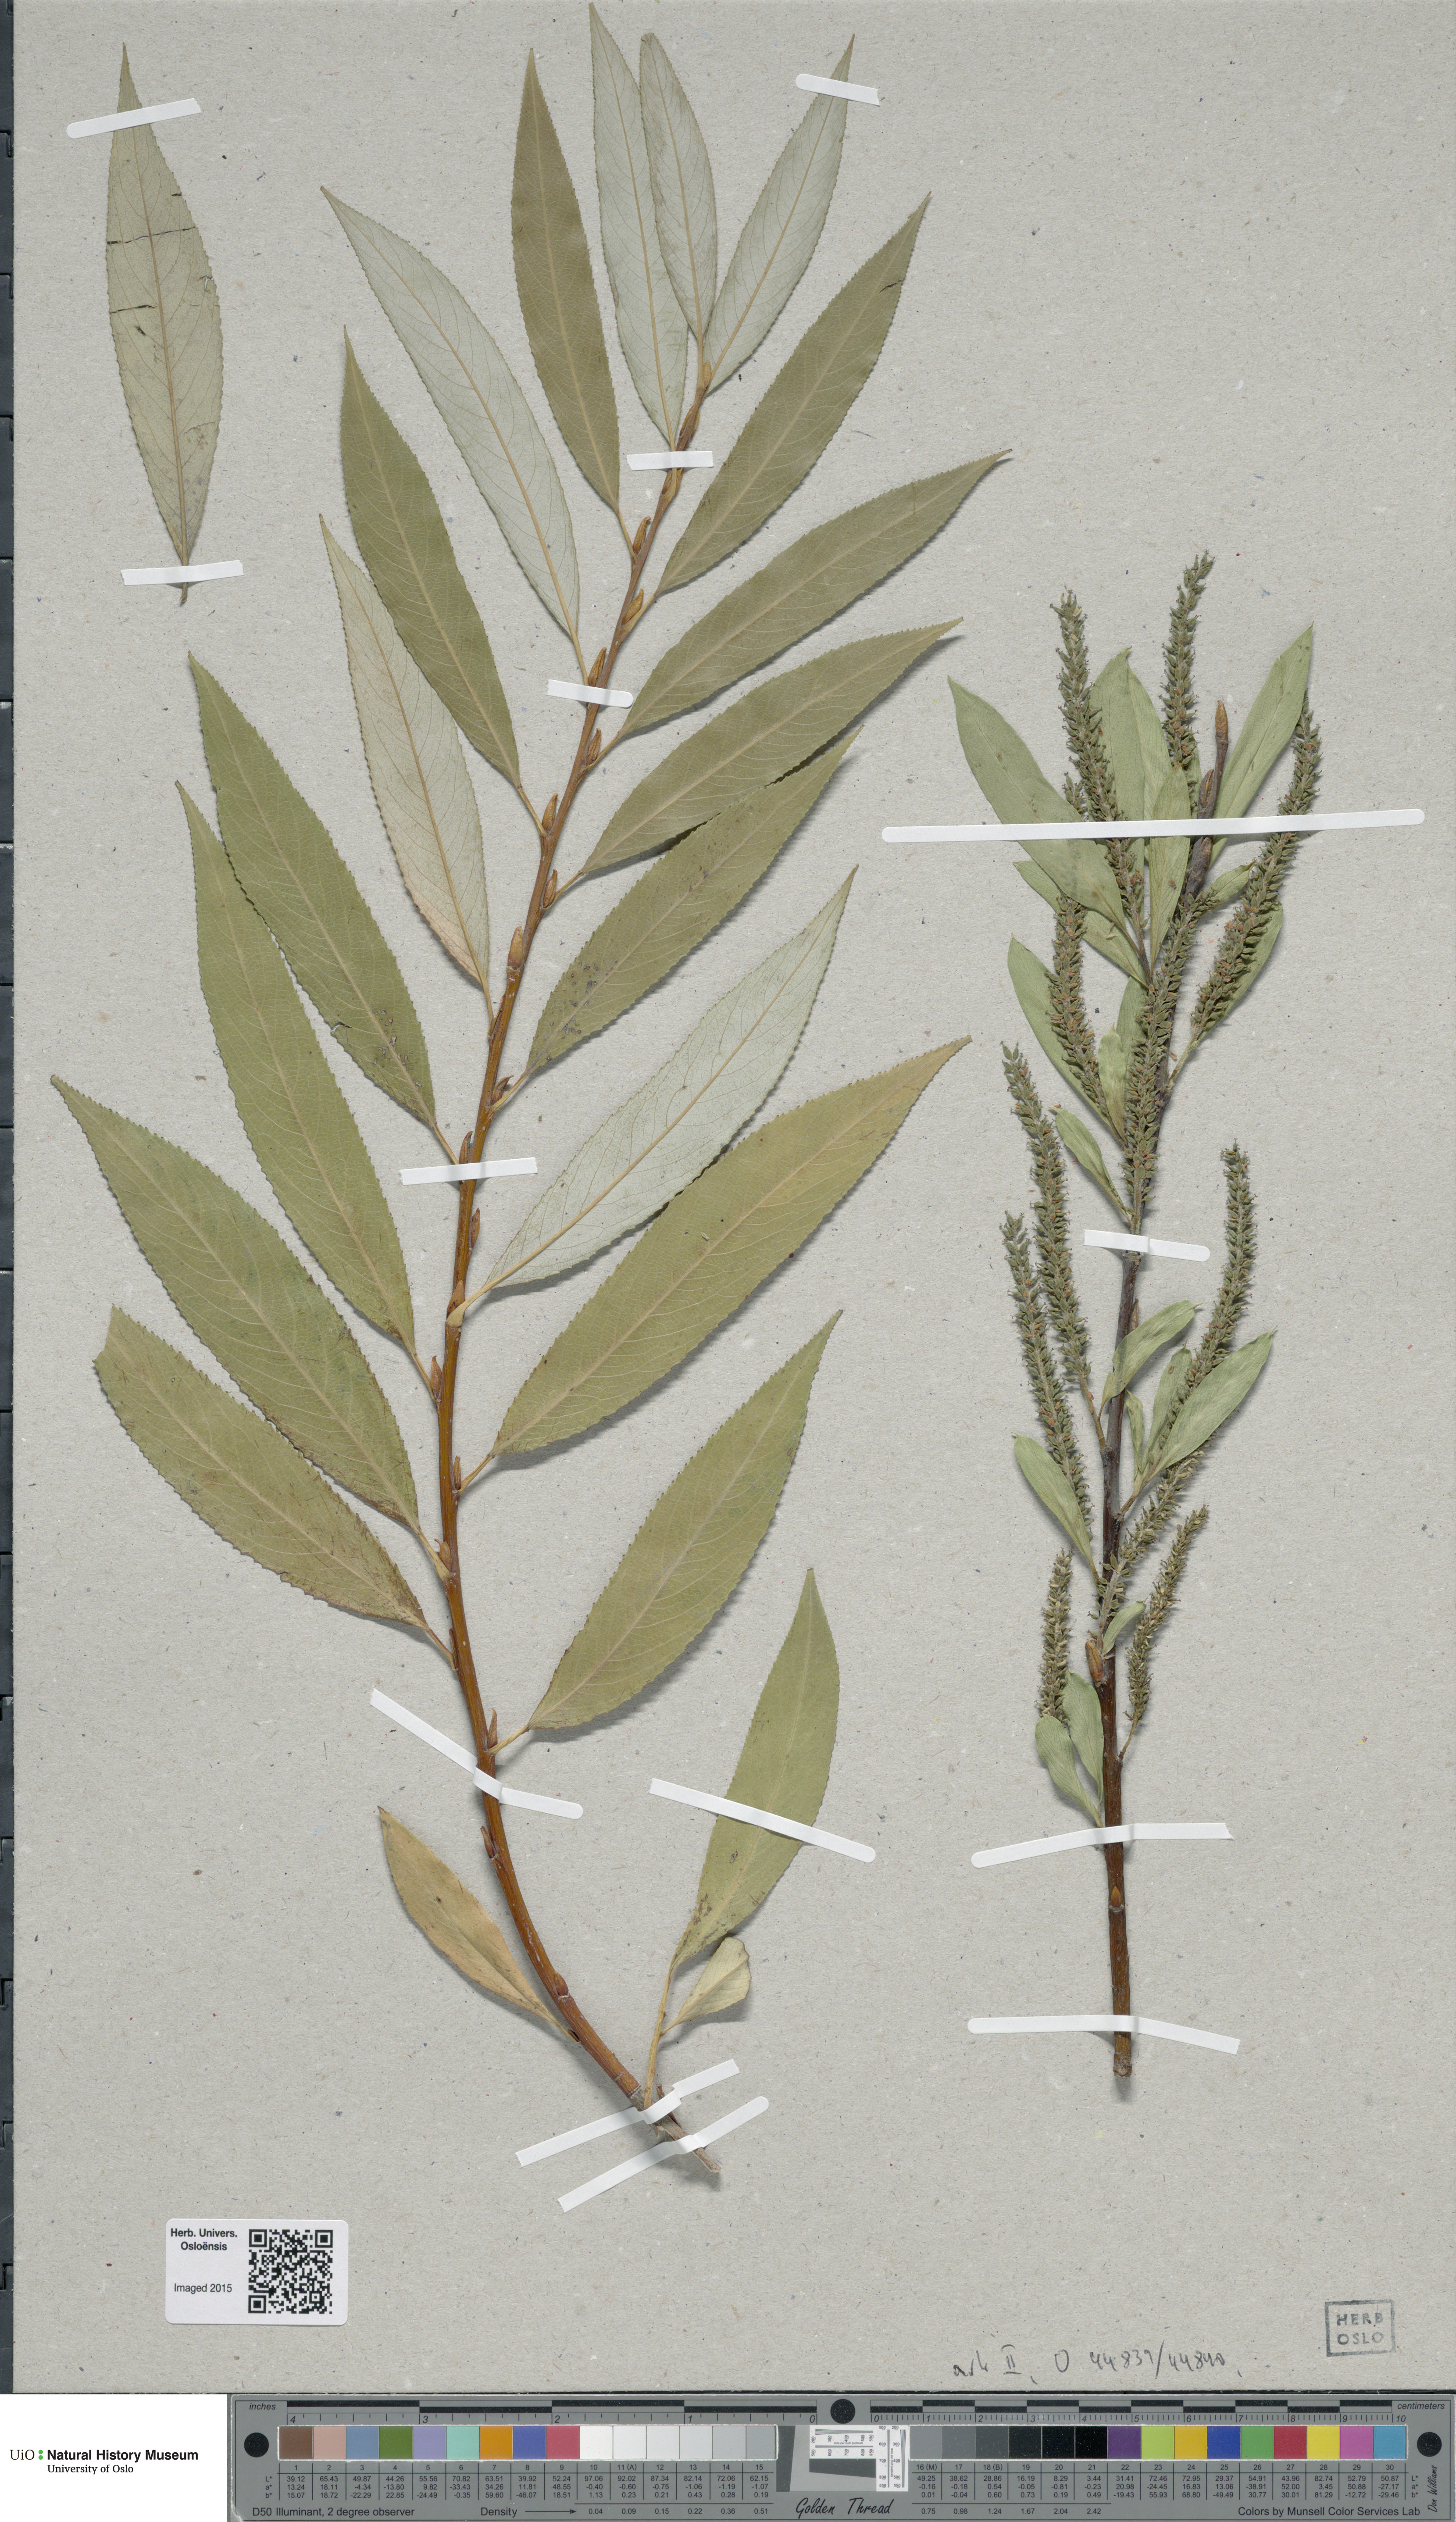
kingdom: Plantae
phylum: Tracheophyta
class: Magnoliopsida
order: Malpighiales
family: Salicaceae
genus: Salix
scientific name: Salix
